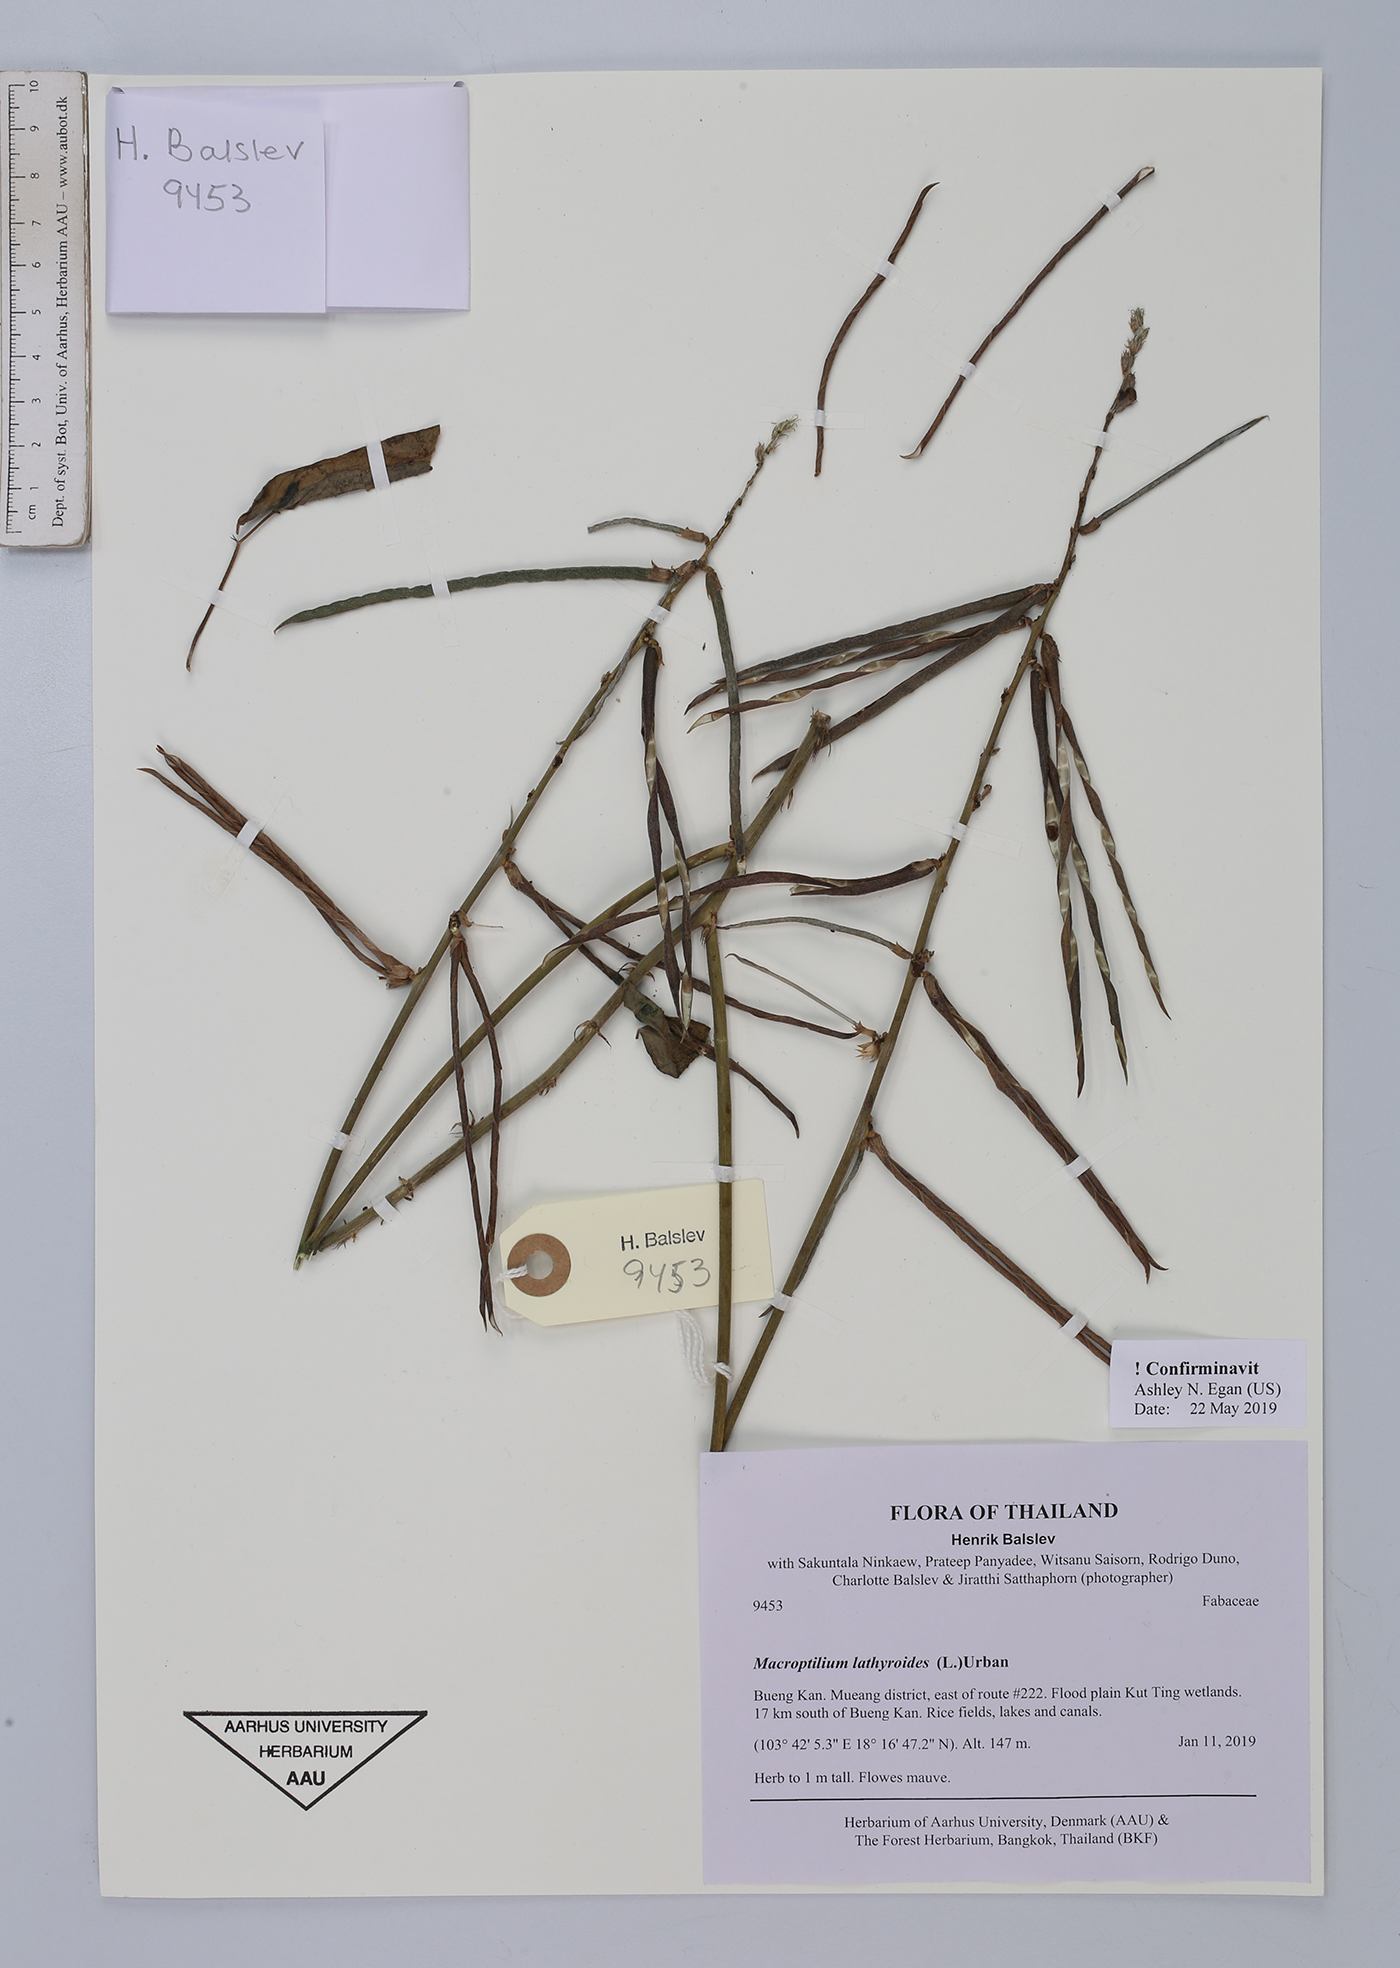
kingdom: Plantae
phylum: Tracheophyta
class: Magnoliopsida
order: Fabales
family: Fabaceae
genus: Macroptilium
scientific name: Macroptilium lathyroides
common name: Wild bushbean
